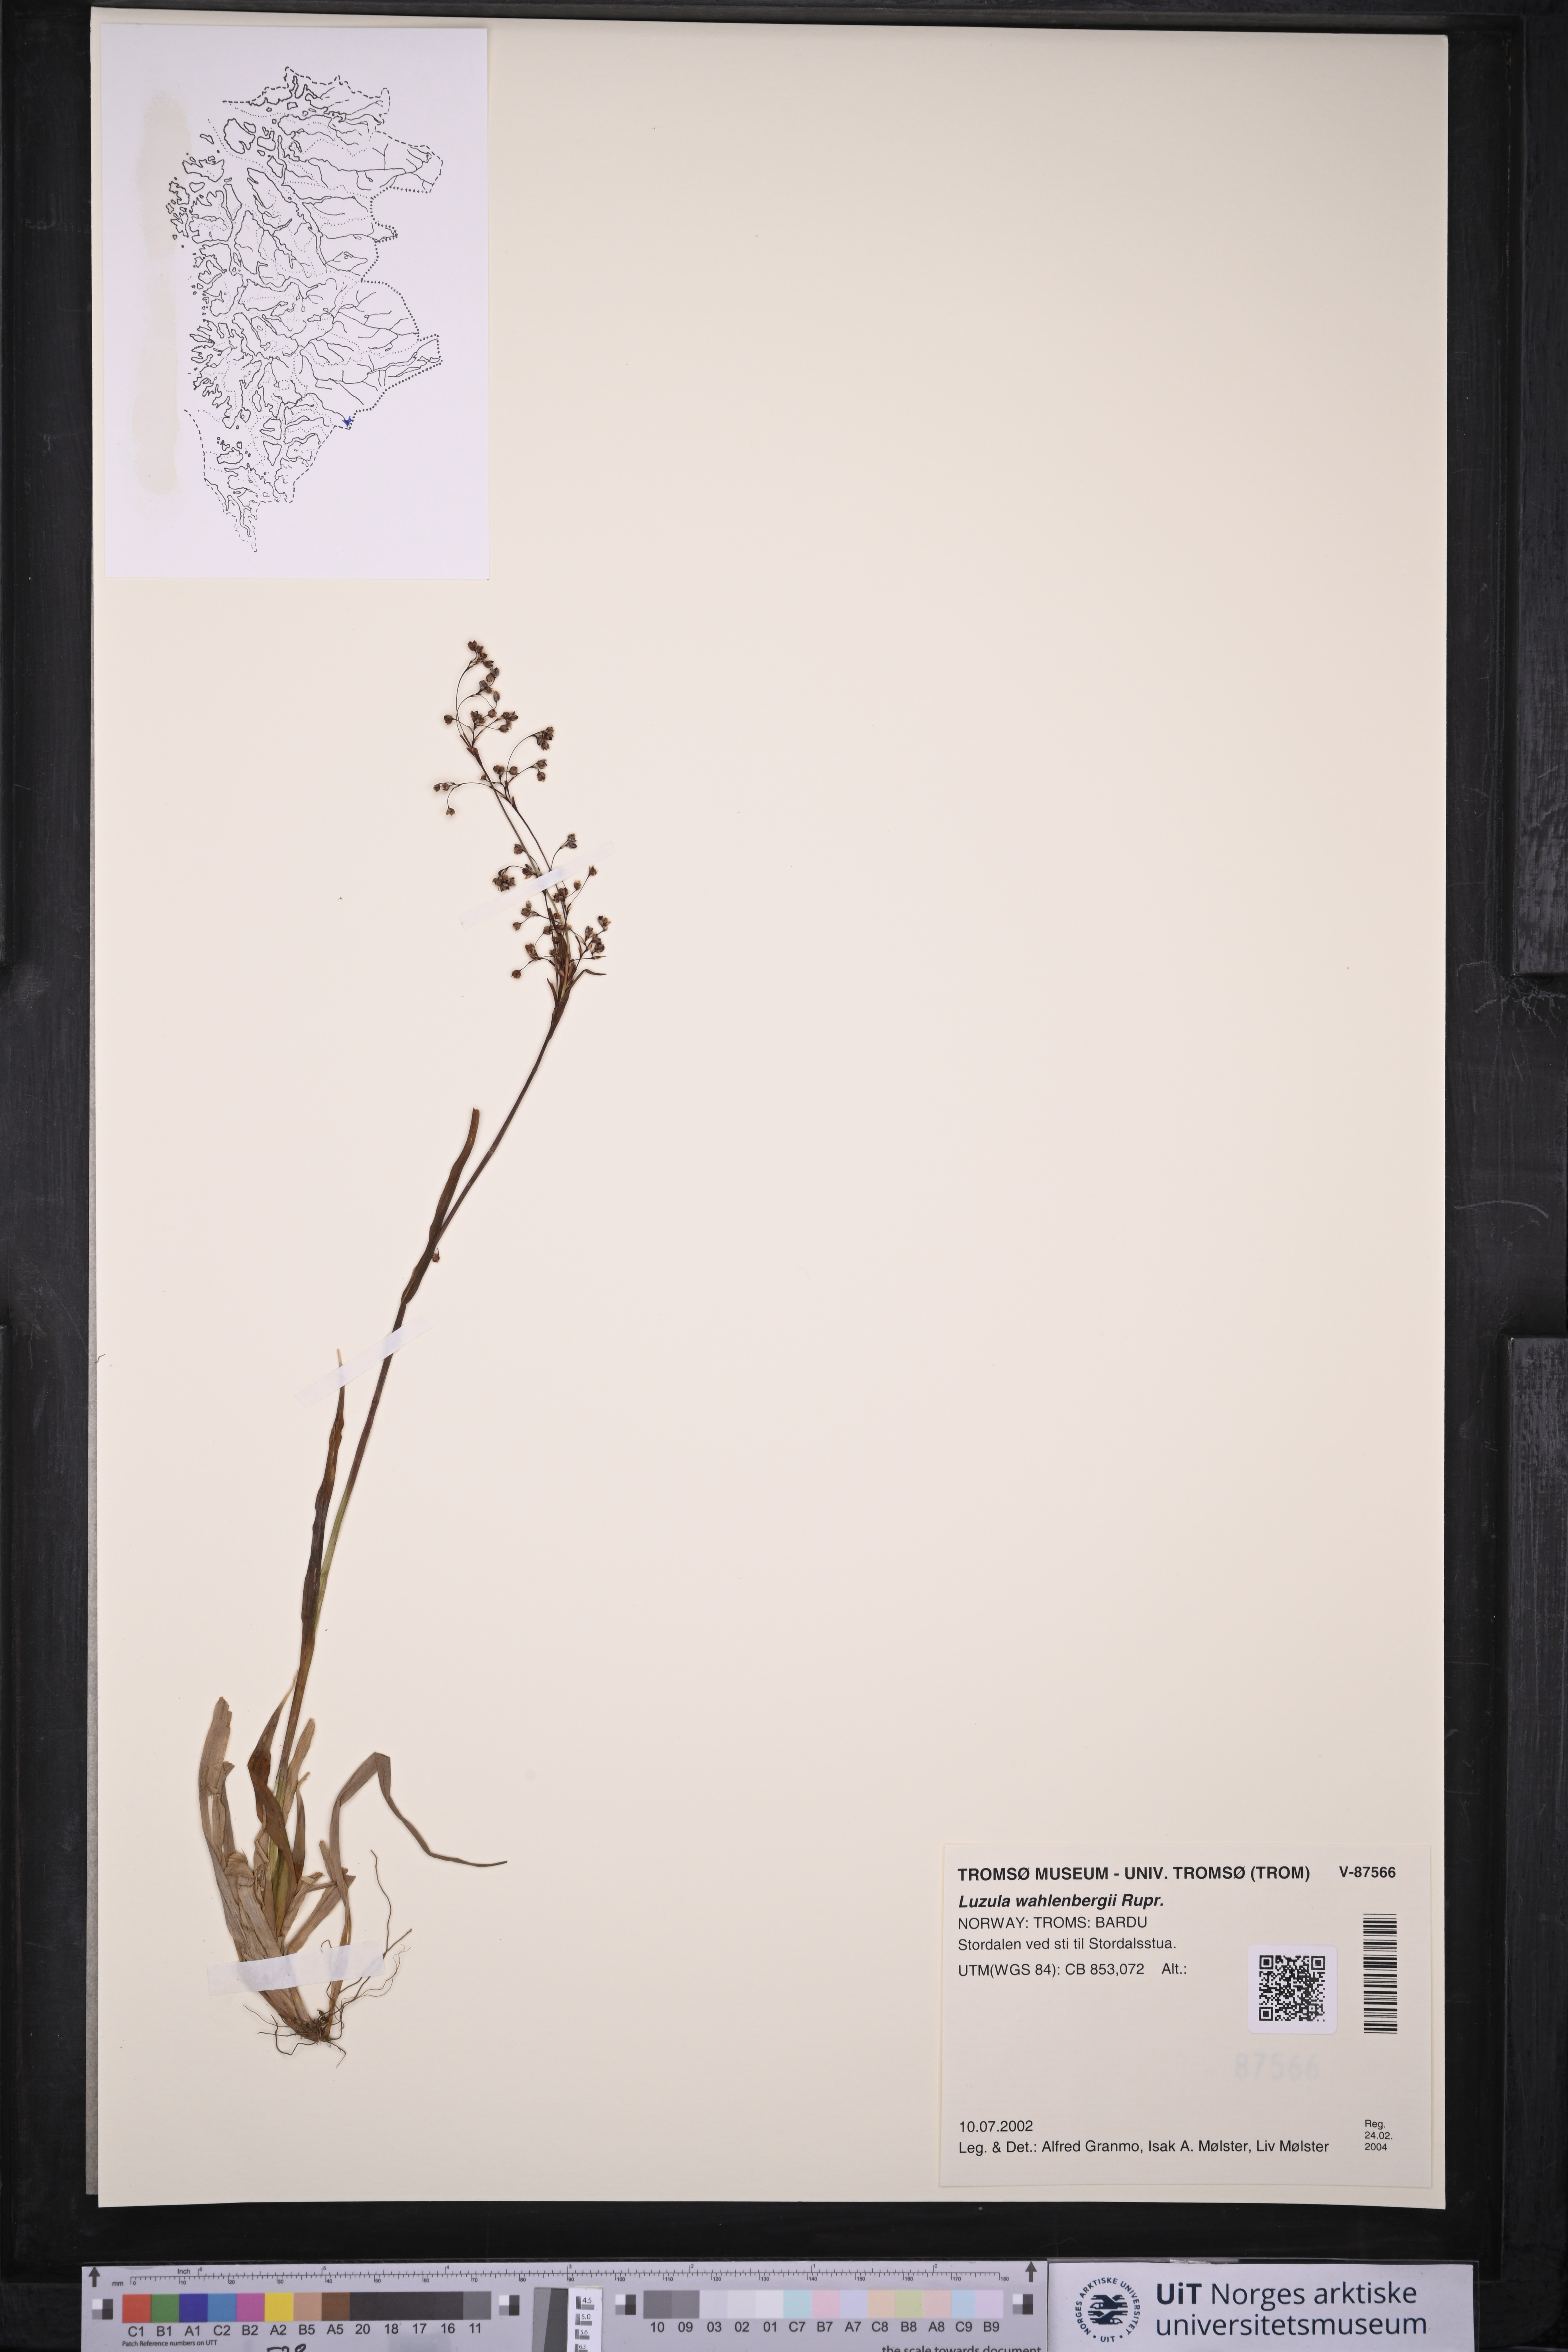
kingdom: Plantae
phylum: Tracheophyta
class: Liliopsida
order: Poales
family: Juncaceae
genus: Luzula
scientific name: Luzula wahlenbergii
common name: Wahlenberg's wood-rush
